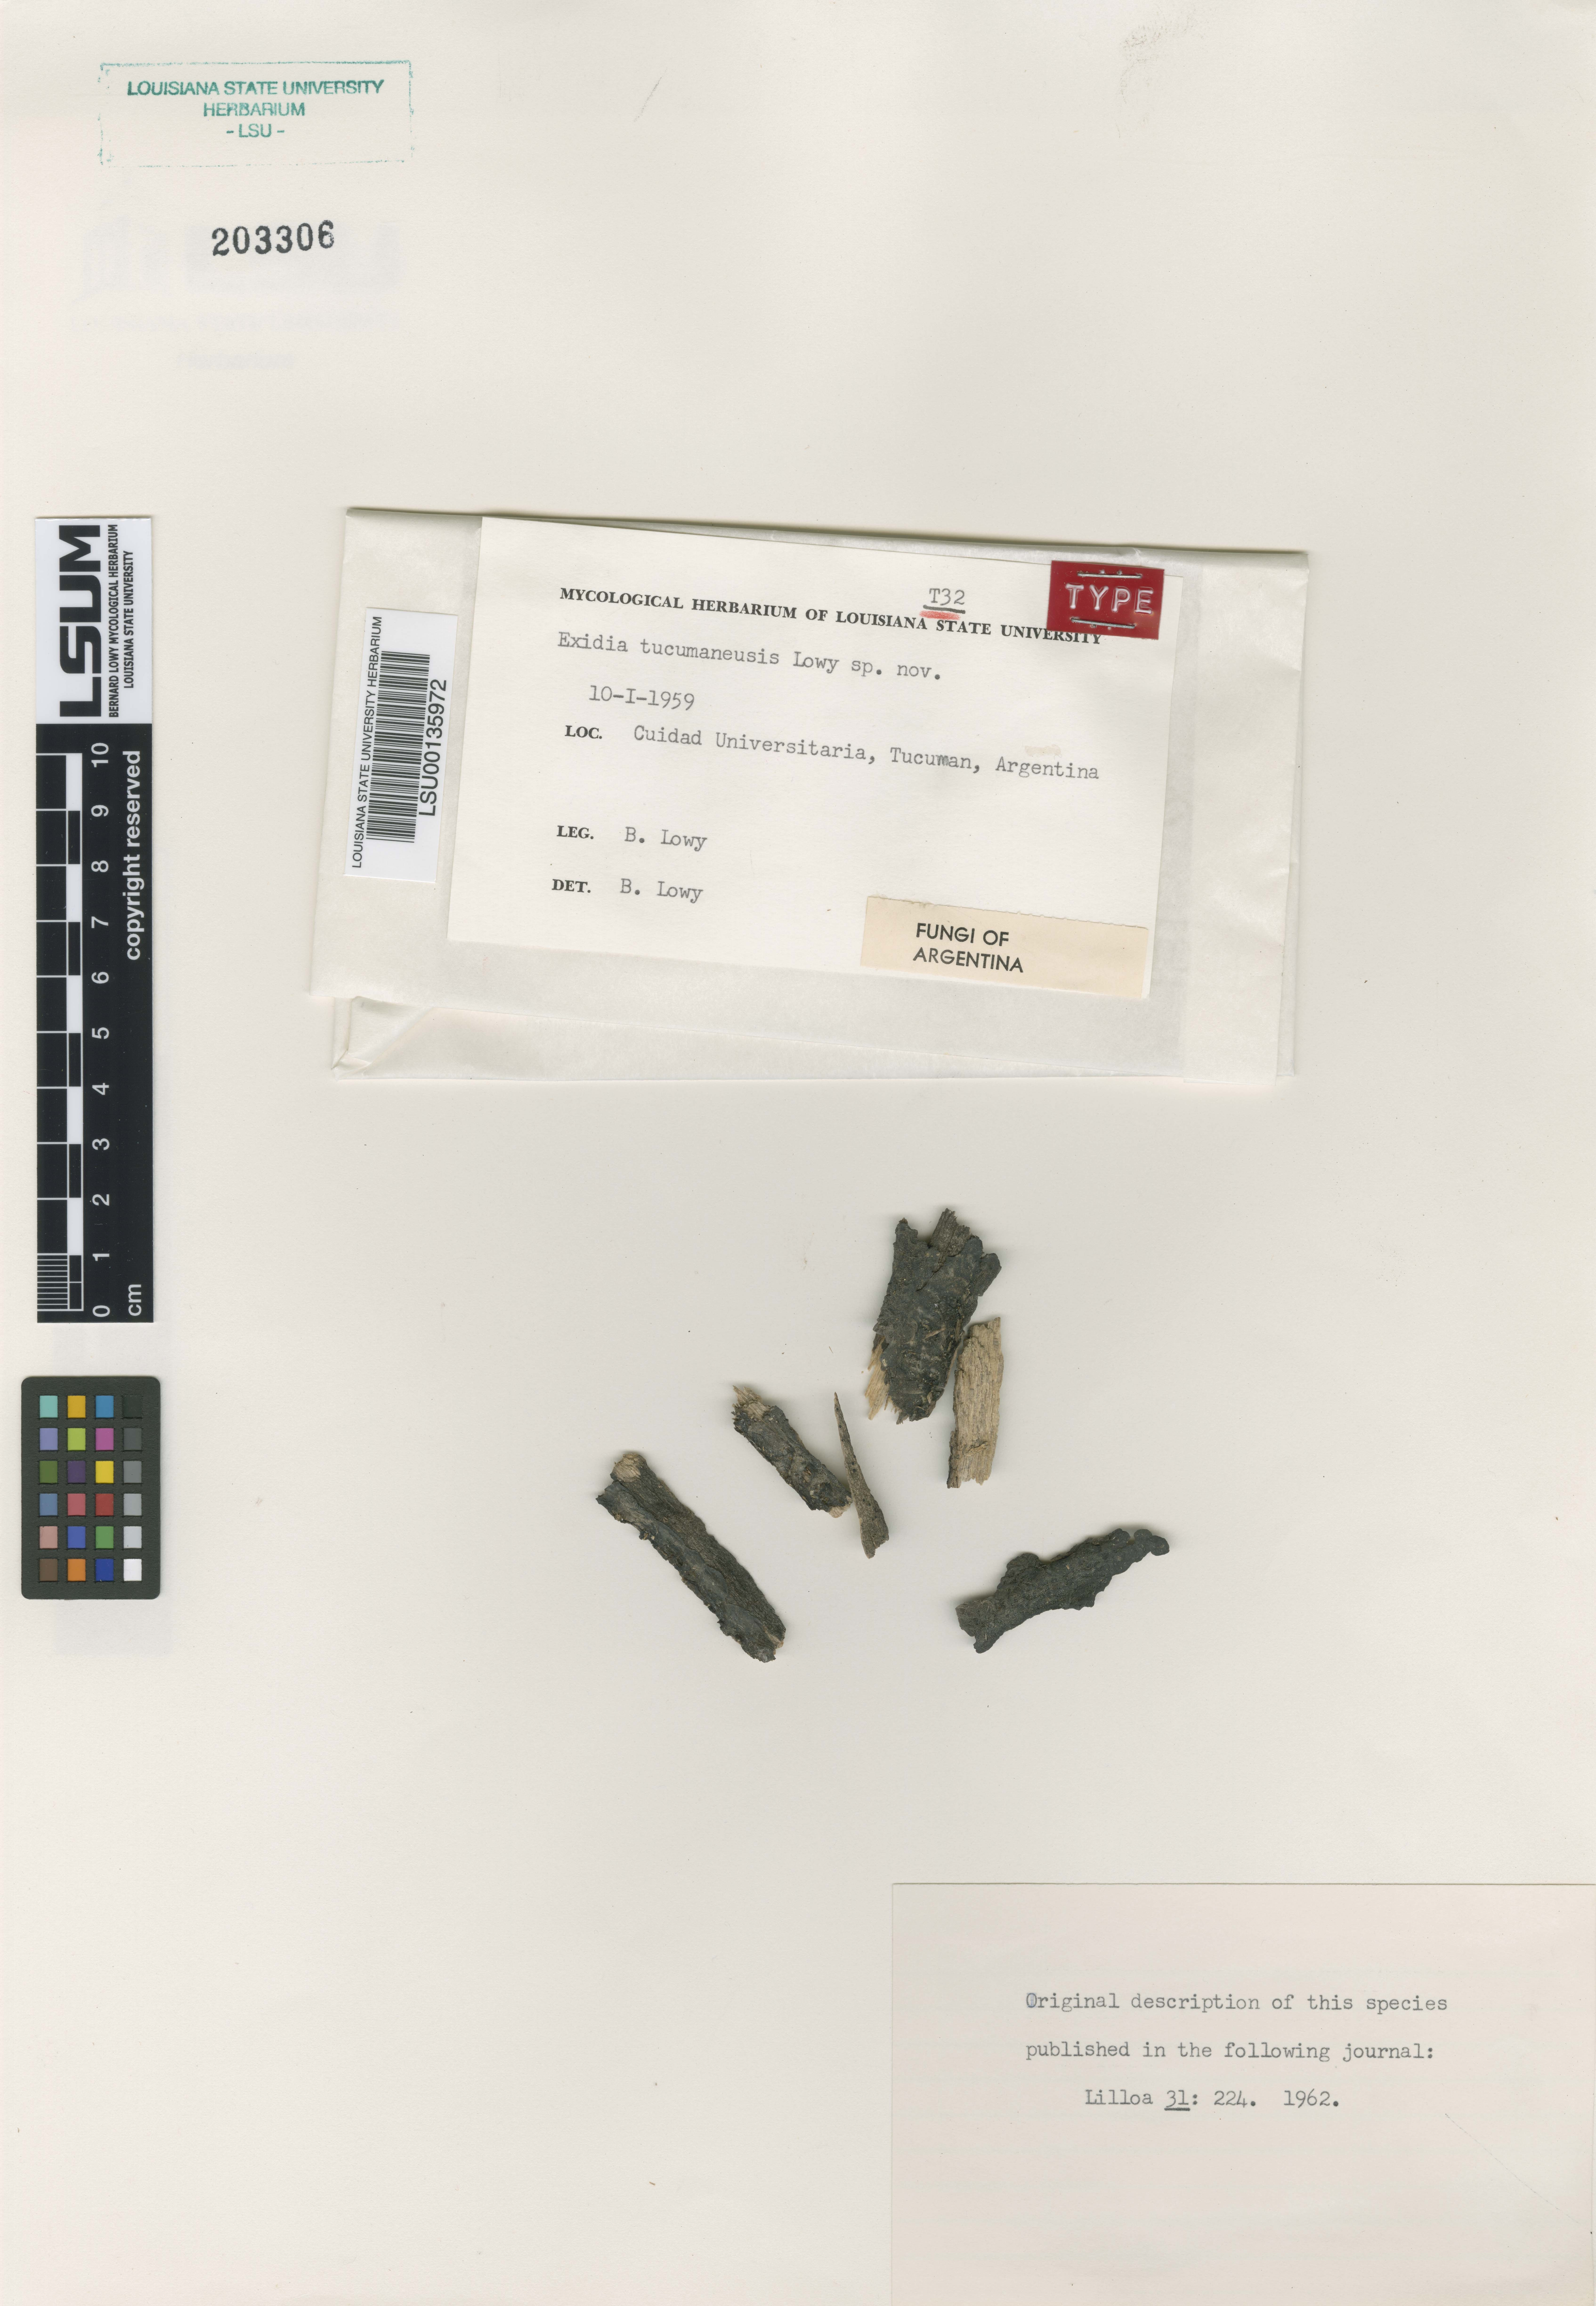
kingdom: Fungi
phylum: Basidiomycota
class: Agaricomycetes
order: Auriculariales
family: Auriculariaceae
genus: Exidia
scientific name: Exidia tucumanensis
